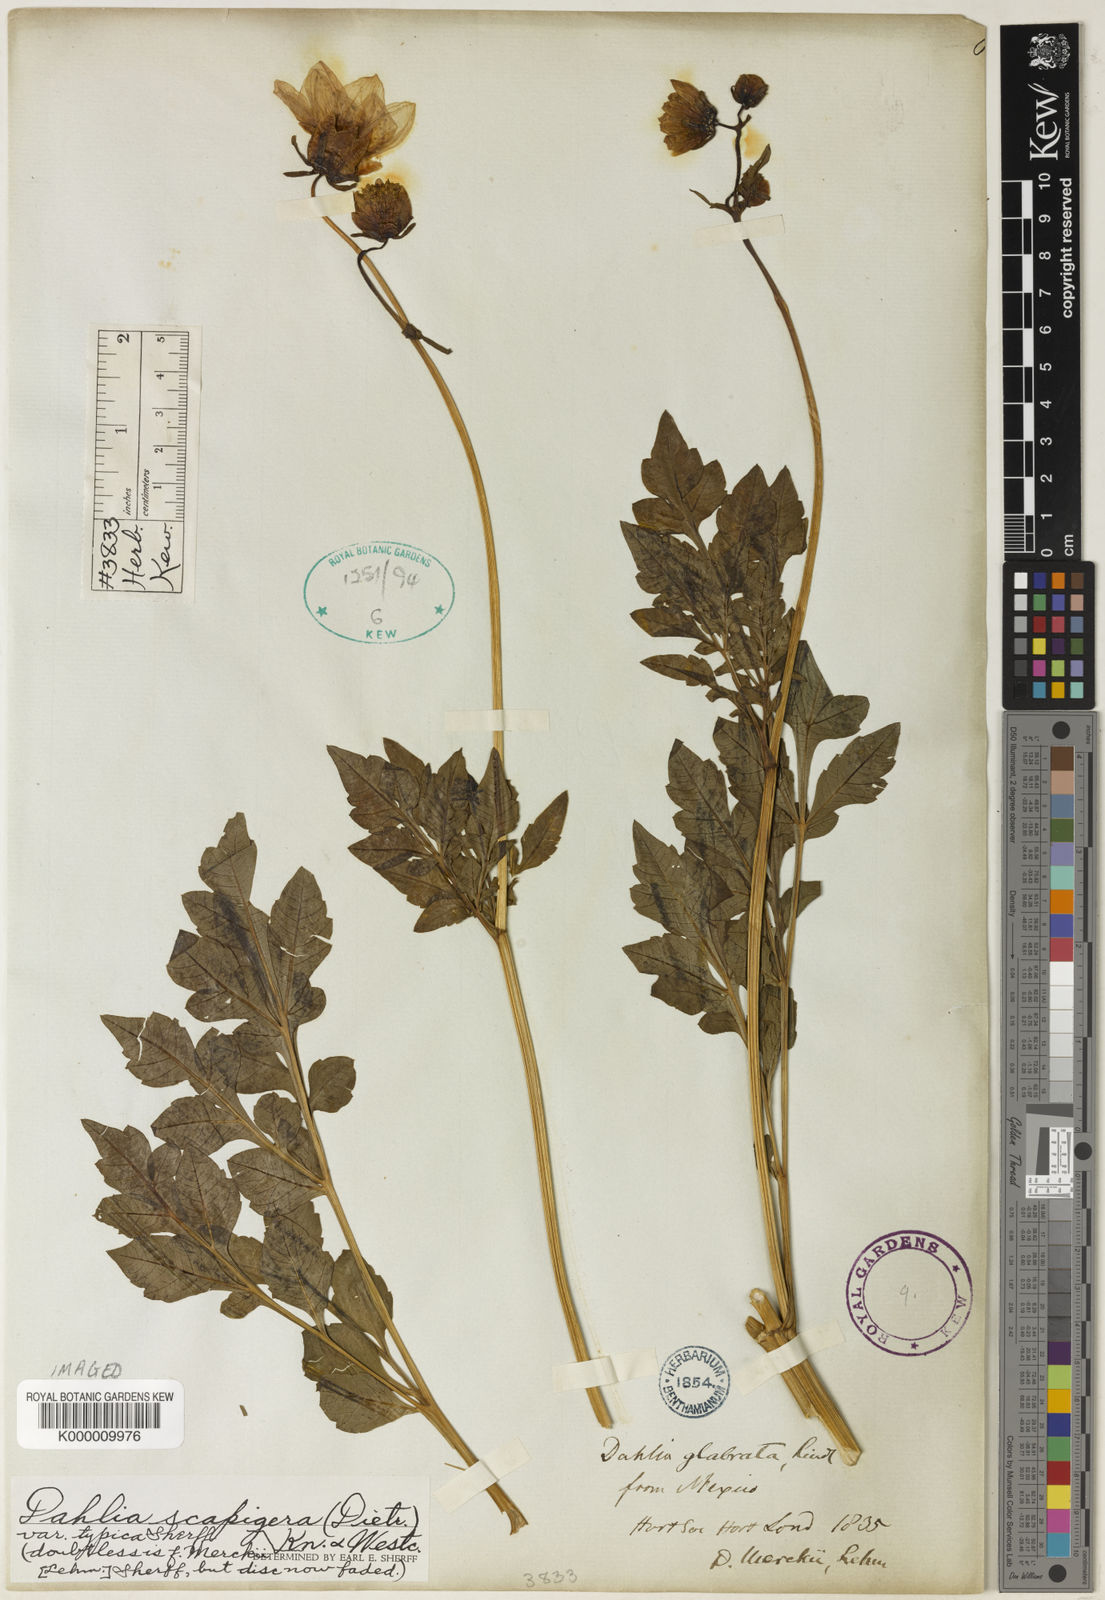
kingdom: Plantae
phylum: Tracheophyta
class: Magnoliopsida
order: Asterales
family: Asteraceae
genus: Dahlia
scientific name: Dahlia merckii
